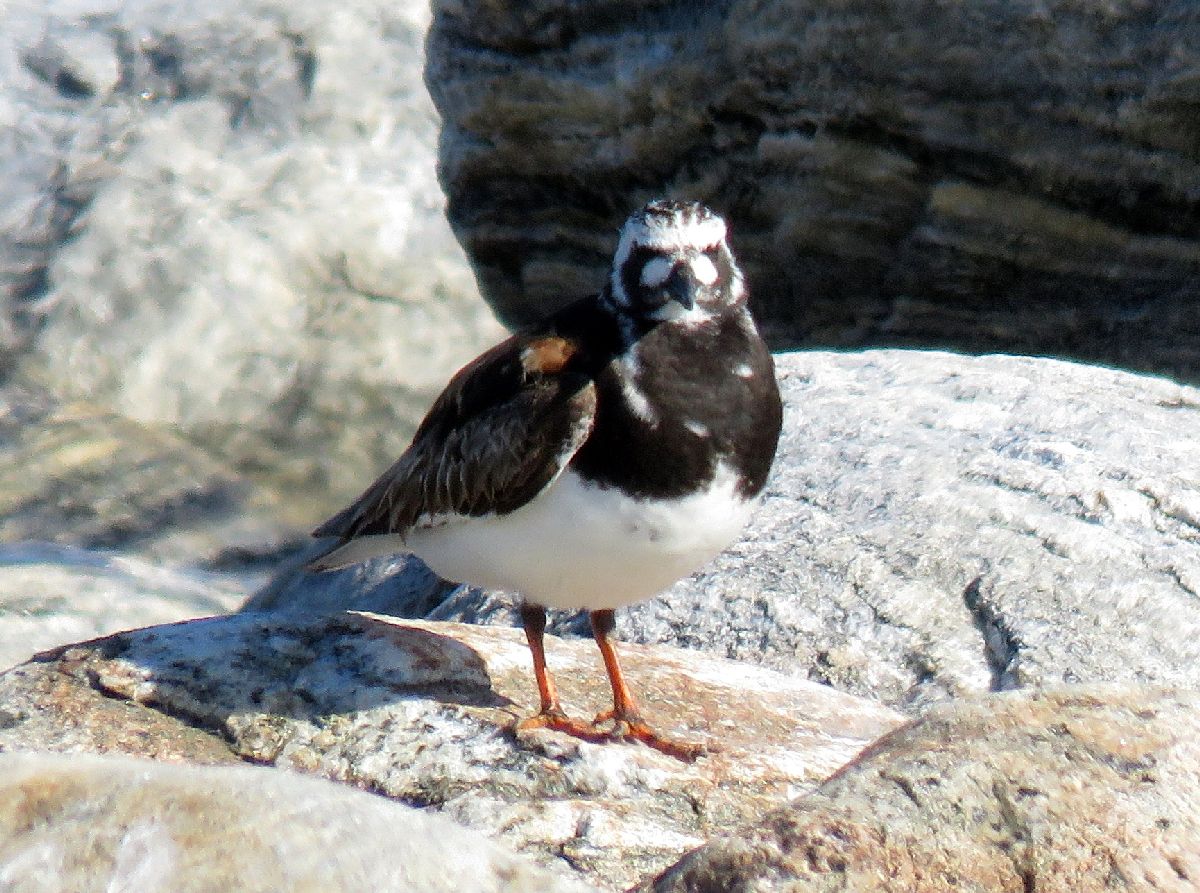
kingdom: Animalia
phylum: Chordata
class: Aves
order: Charadriiformes
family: Scolopacidae
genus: Arenaria
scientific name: Arenaria interpres
